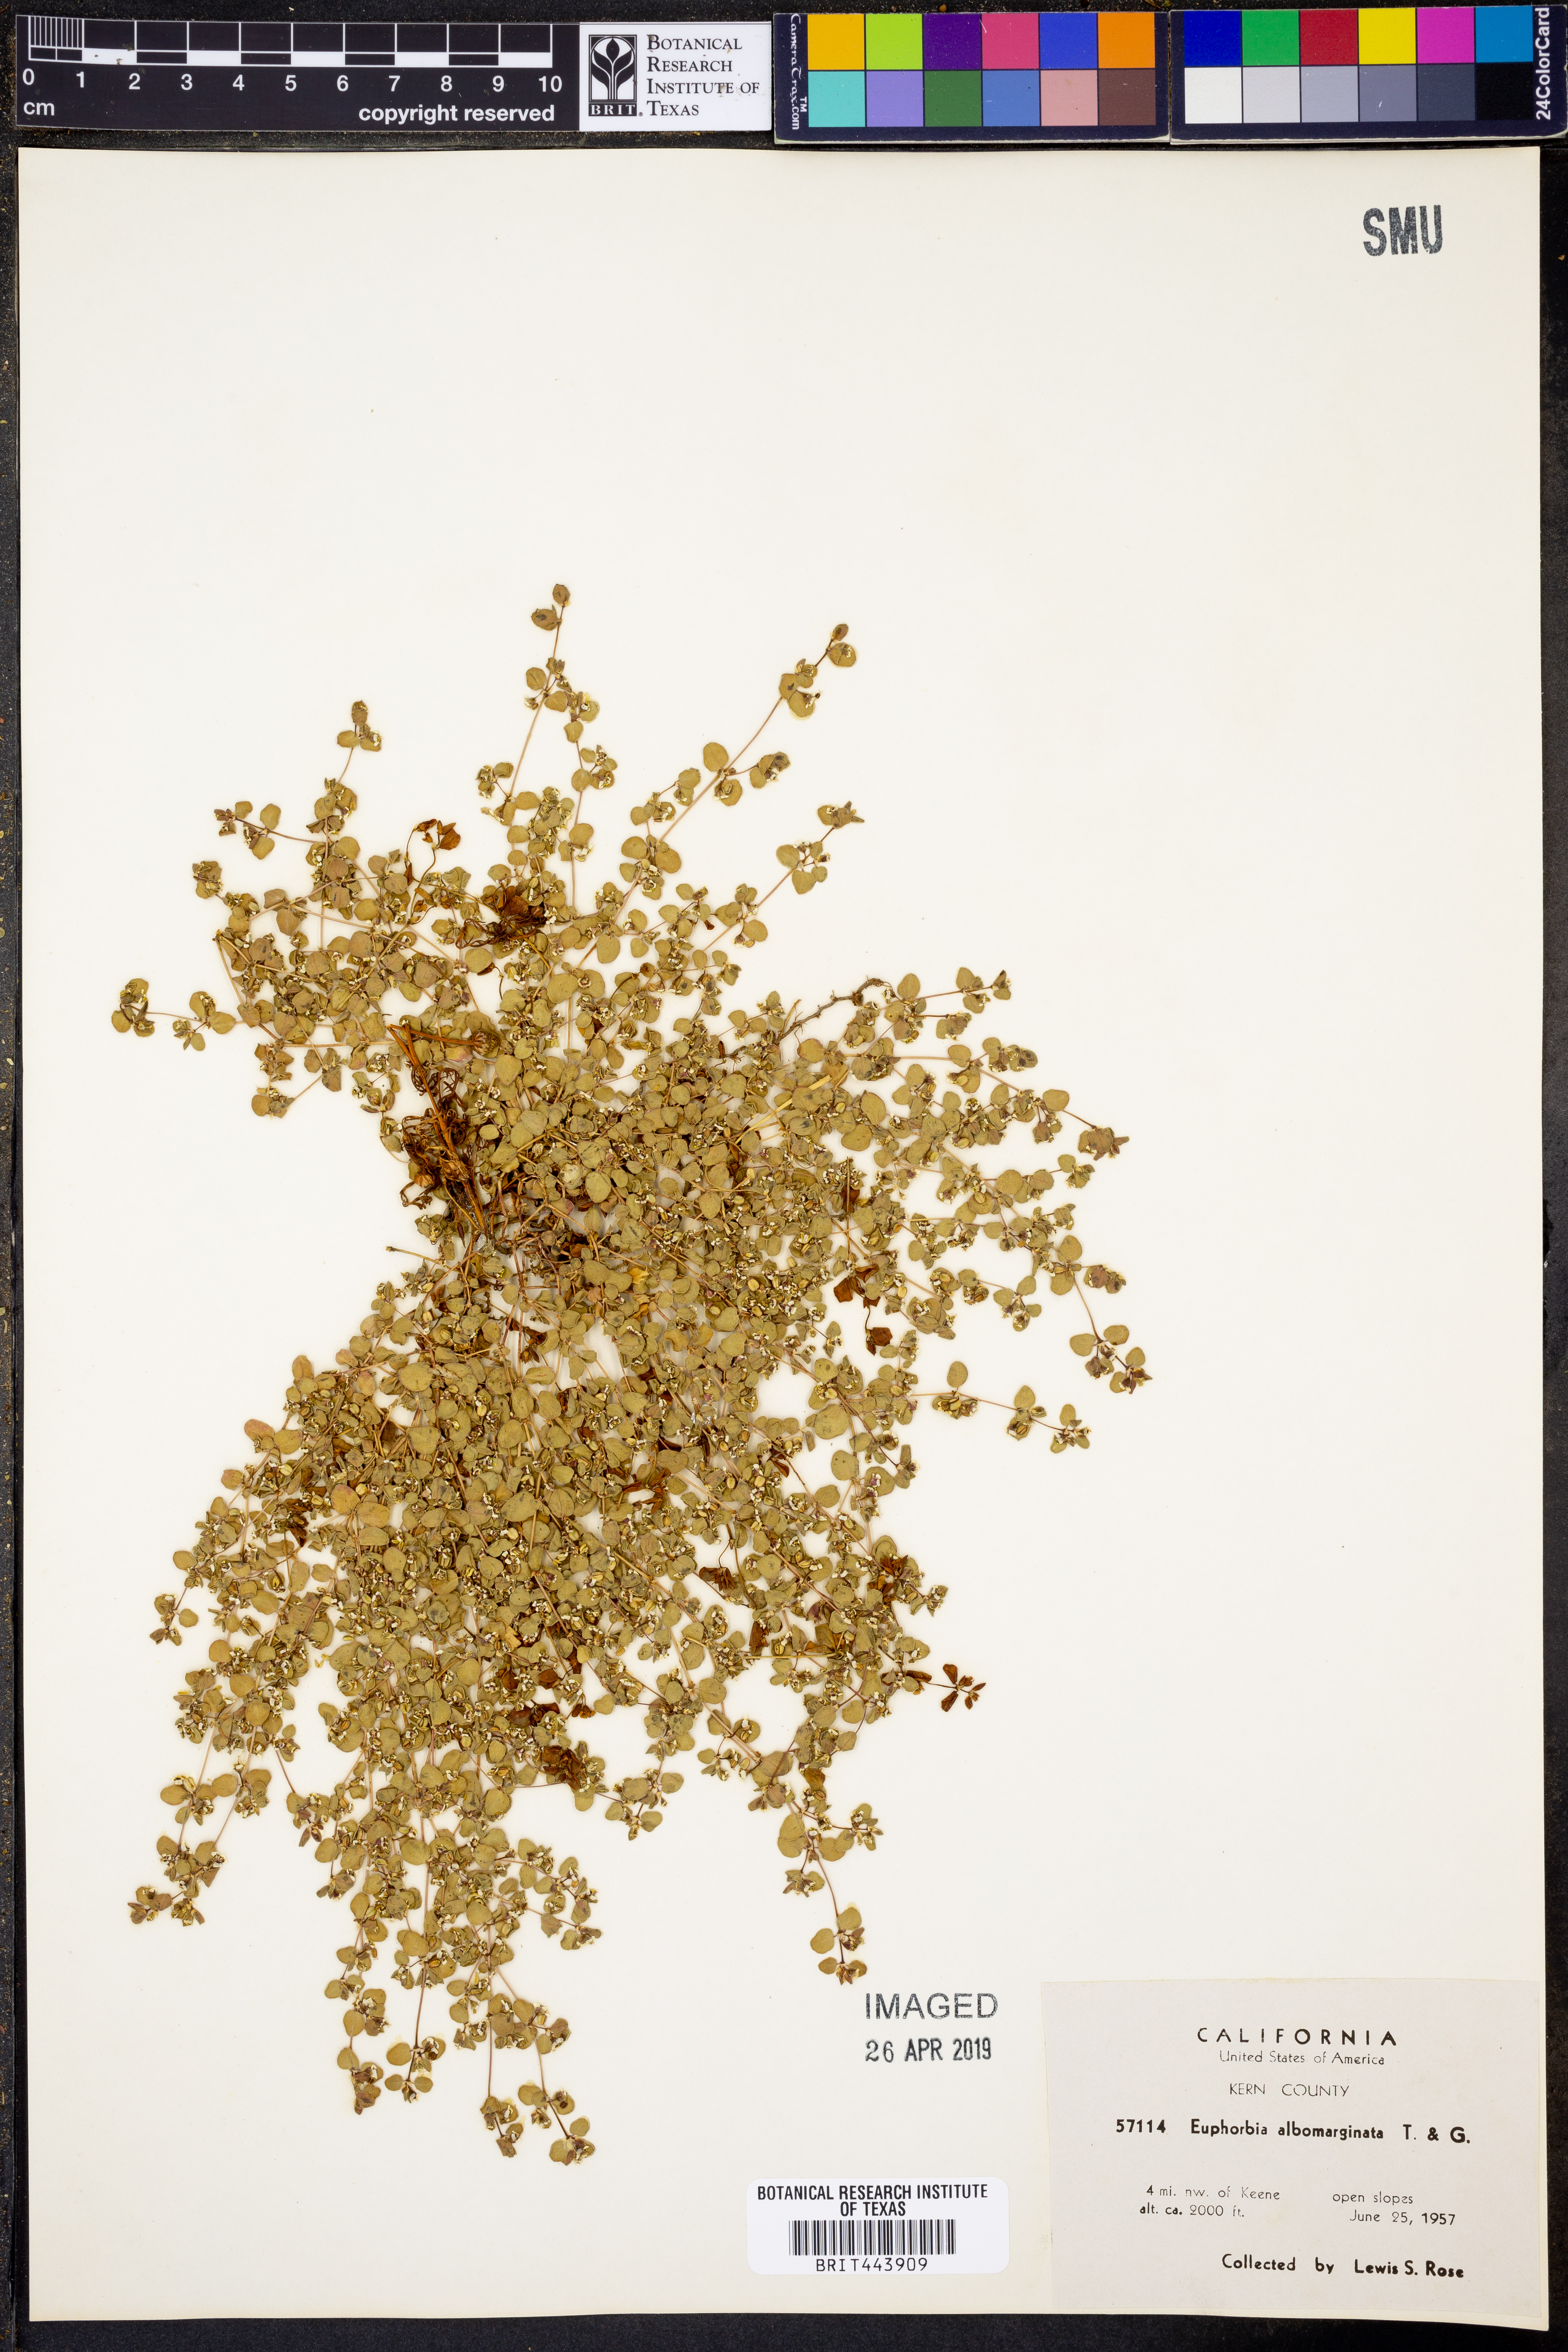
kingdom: Plantae
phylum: Tracheophyta
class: Magnoliopsida
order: Malpighiales
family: Euphorbiaceae
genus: Euphorbia
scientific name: Euphorbia albomarginata
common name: Whitemargin sandmat
